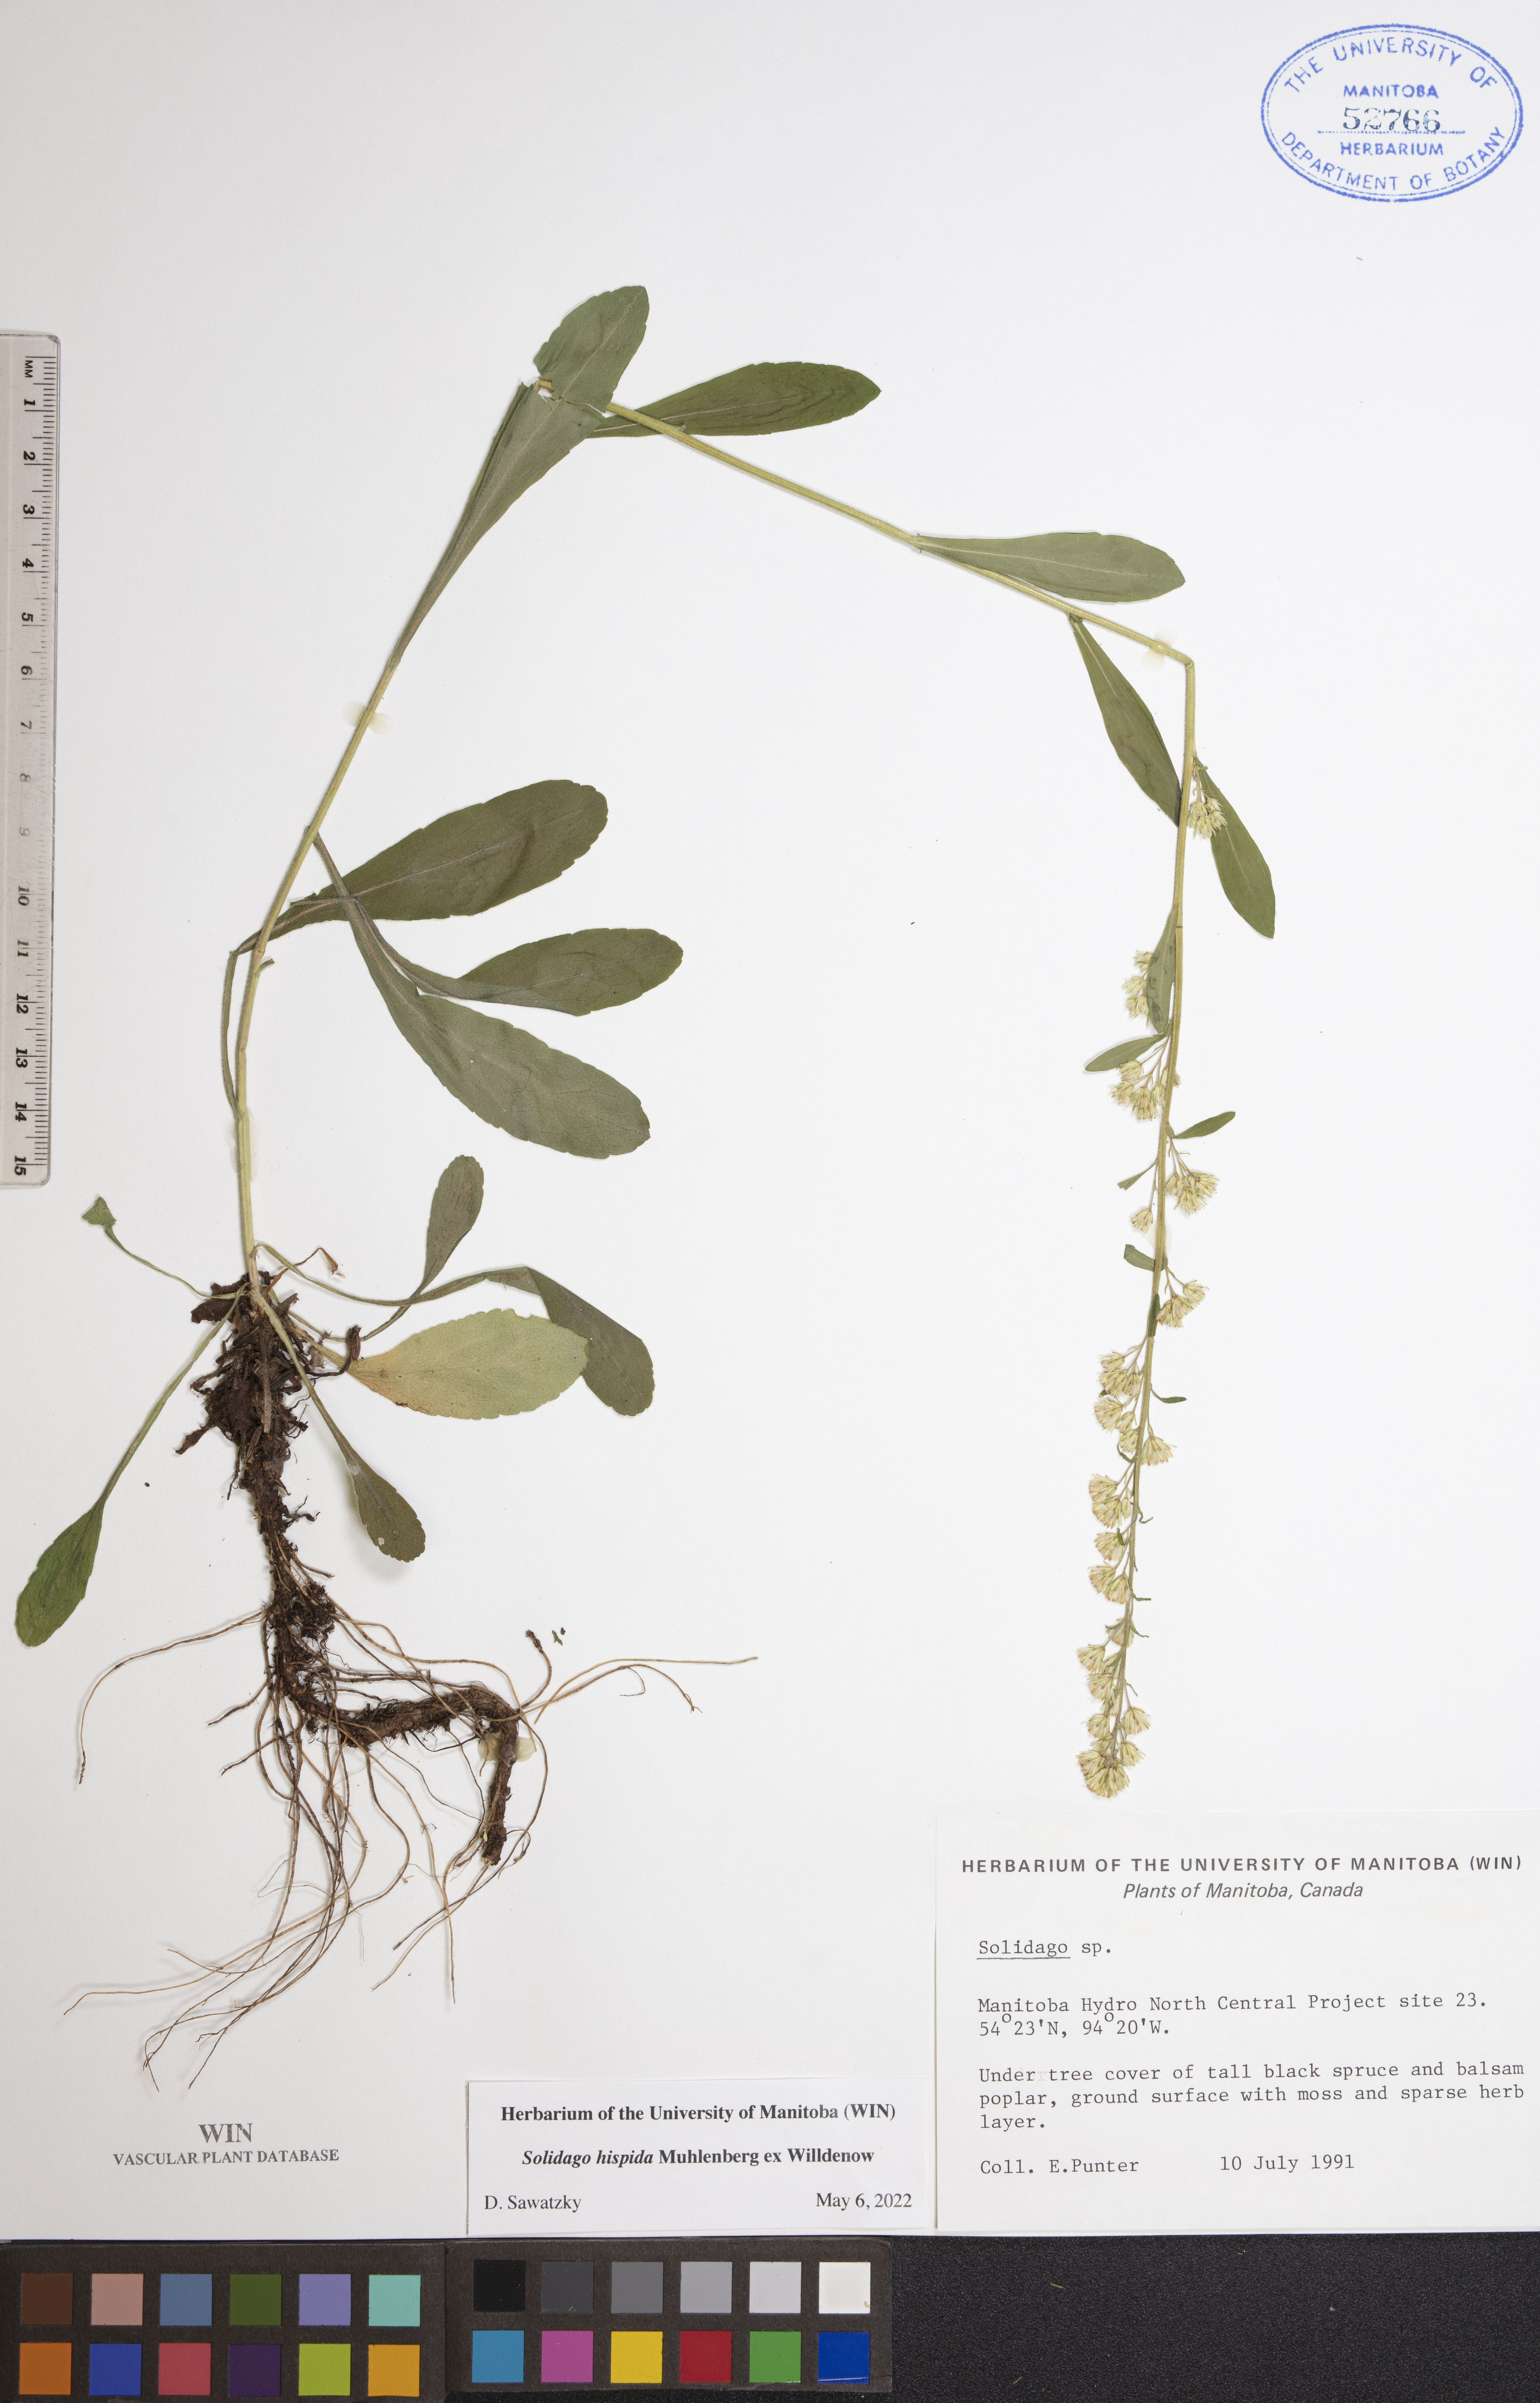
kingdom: Plantae
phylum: Tracheophyta
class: Magnoliopsida
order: Asterales
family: Asteraceae
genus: Solidago
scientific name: Solidago hispida
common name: Hairy goldenrod
